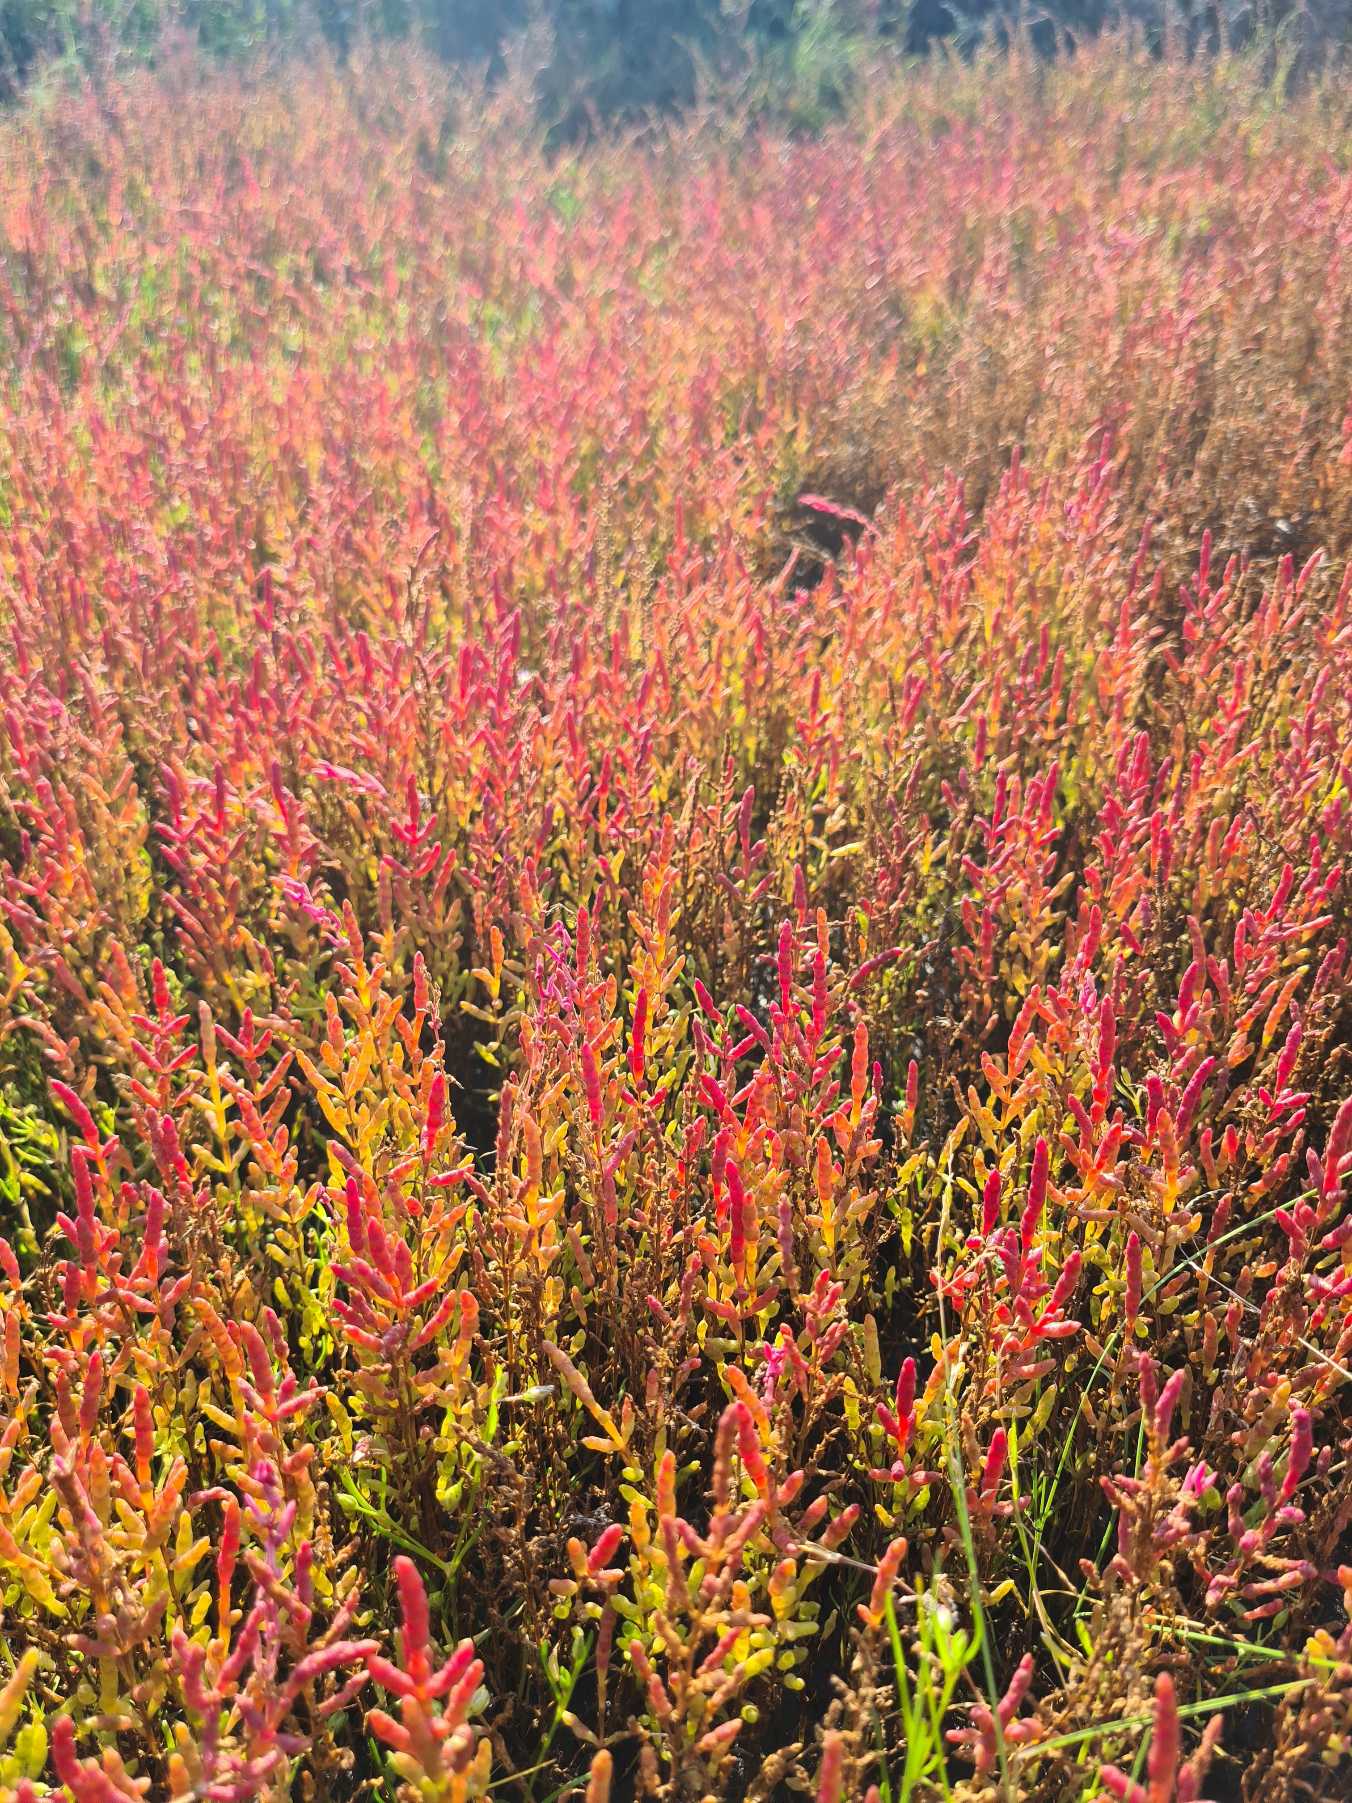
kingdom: Plantae
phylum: Tracheophyta
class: Magnoliopsida
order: Caryophyllales
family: Amaranthaceae
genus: Salicornia
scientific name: Salicornia europaea
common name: Almindelig salturt
